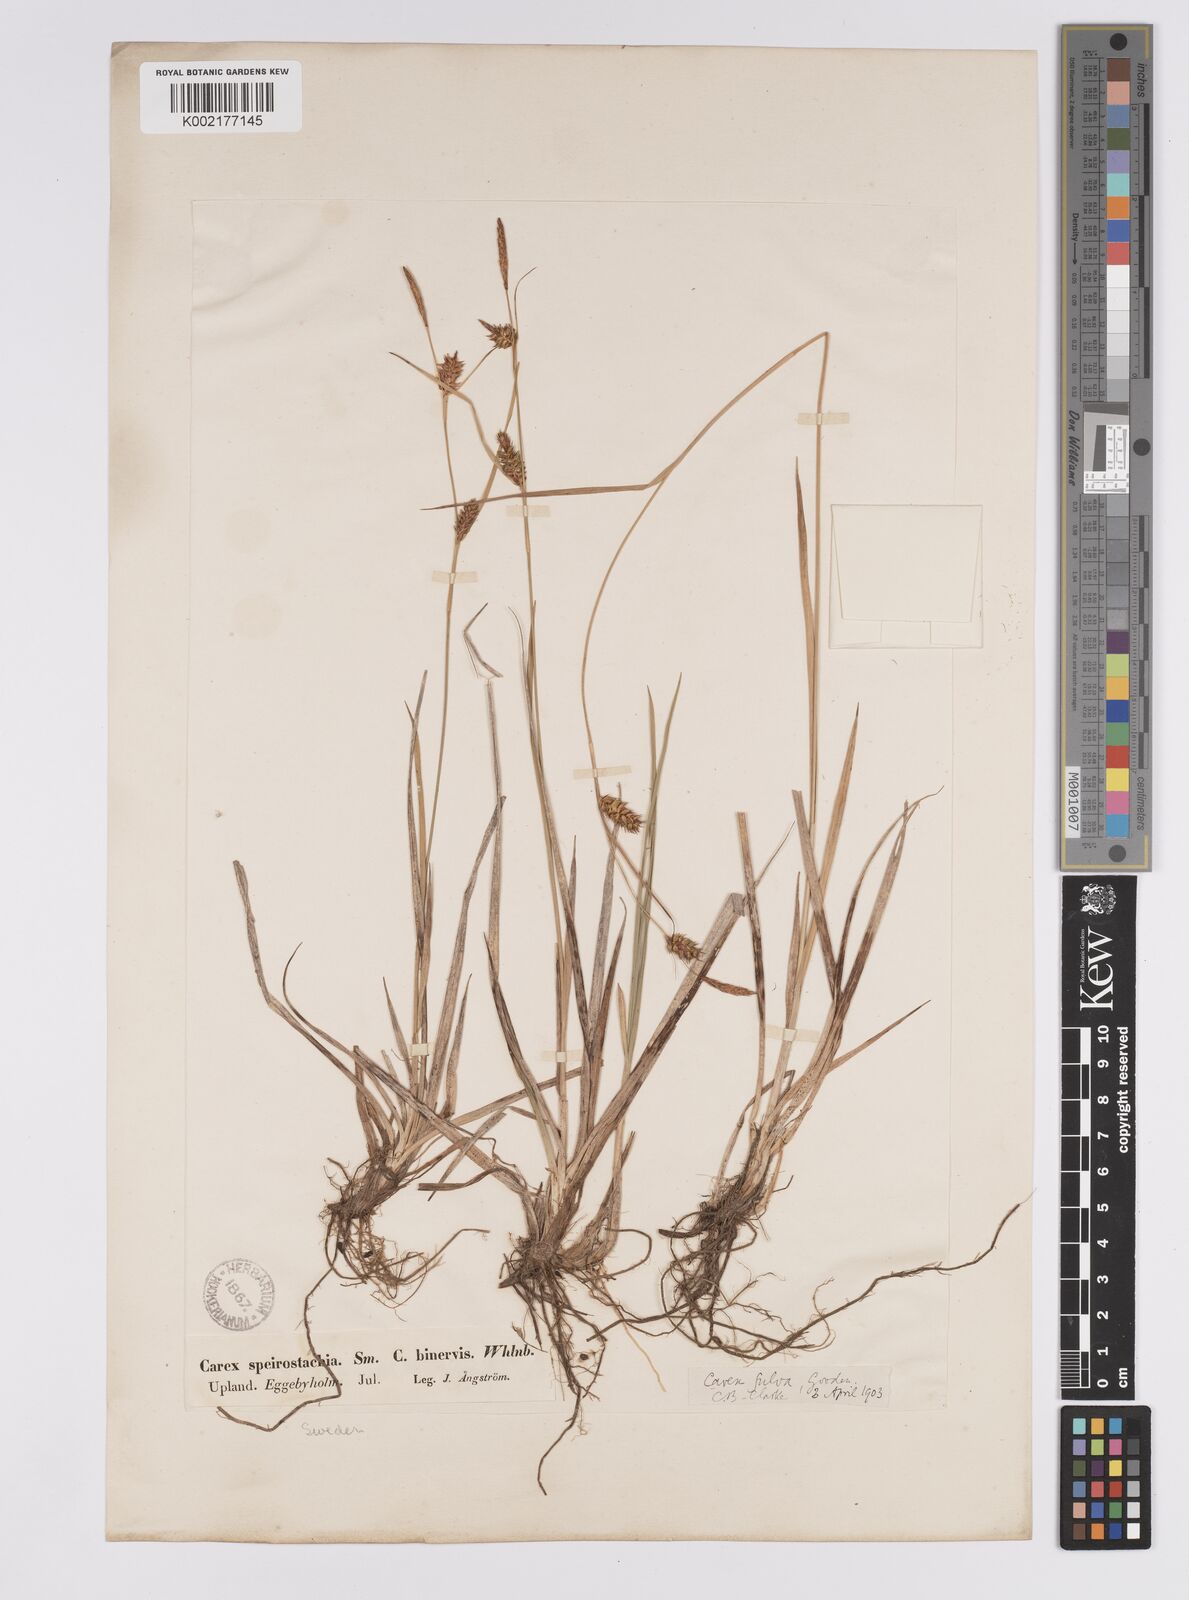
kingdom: Plantae
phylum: Tracheophyta
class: Liliopsida
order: Poales
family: Cyperaceae
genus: Carex
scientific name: Carex hostiana
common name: Tawny sedge
